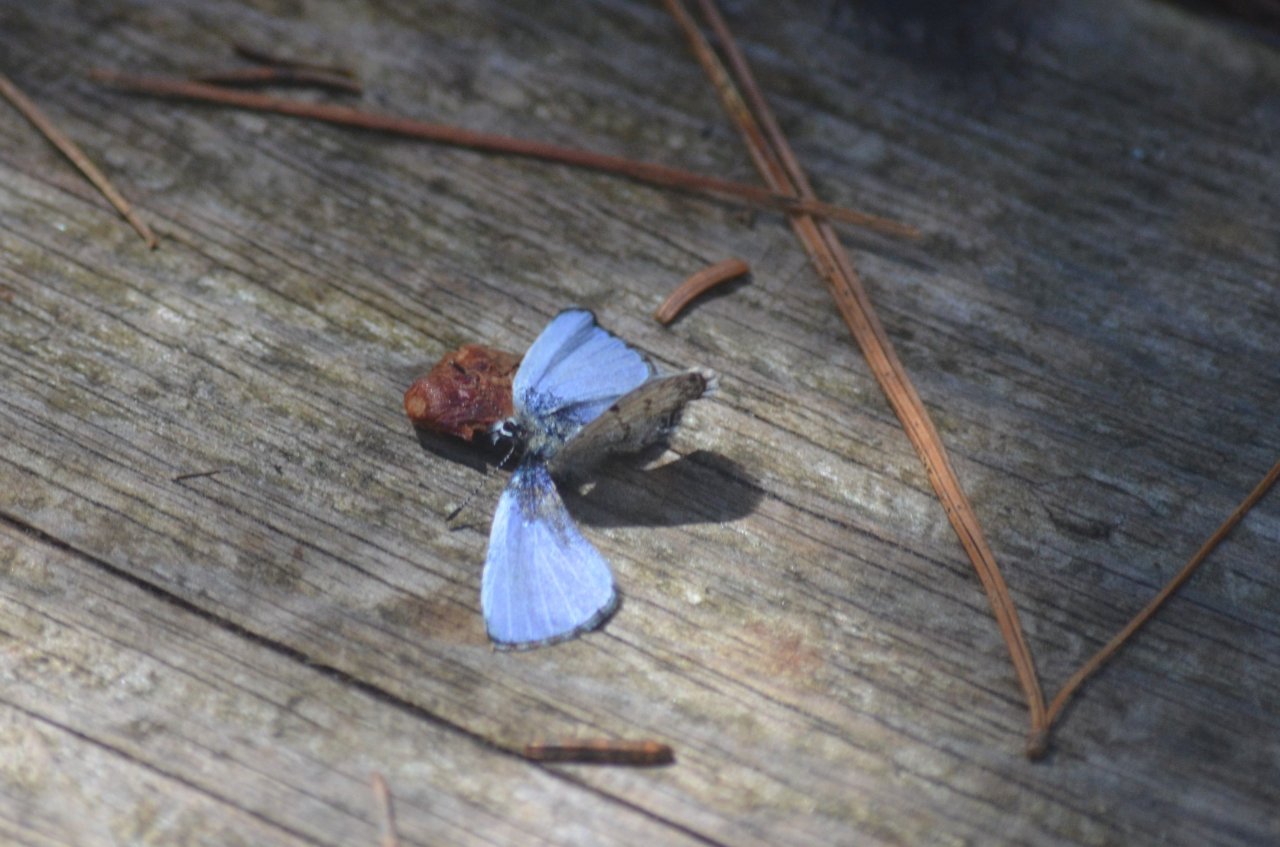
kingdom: Animalia
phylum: Arthropoda
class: Insecta
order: Lepidoptera
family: Lycaenidae
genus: Celastrina
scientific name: Celastrina lucia
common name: Northern Spring Azure
